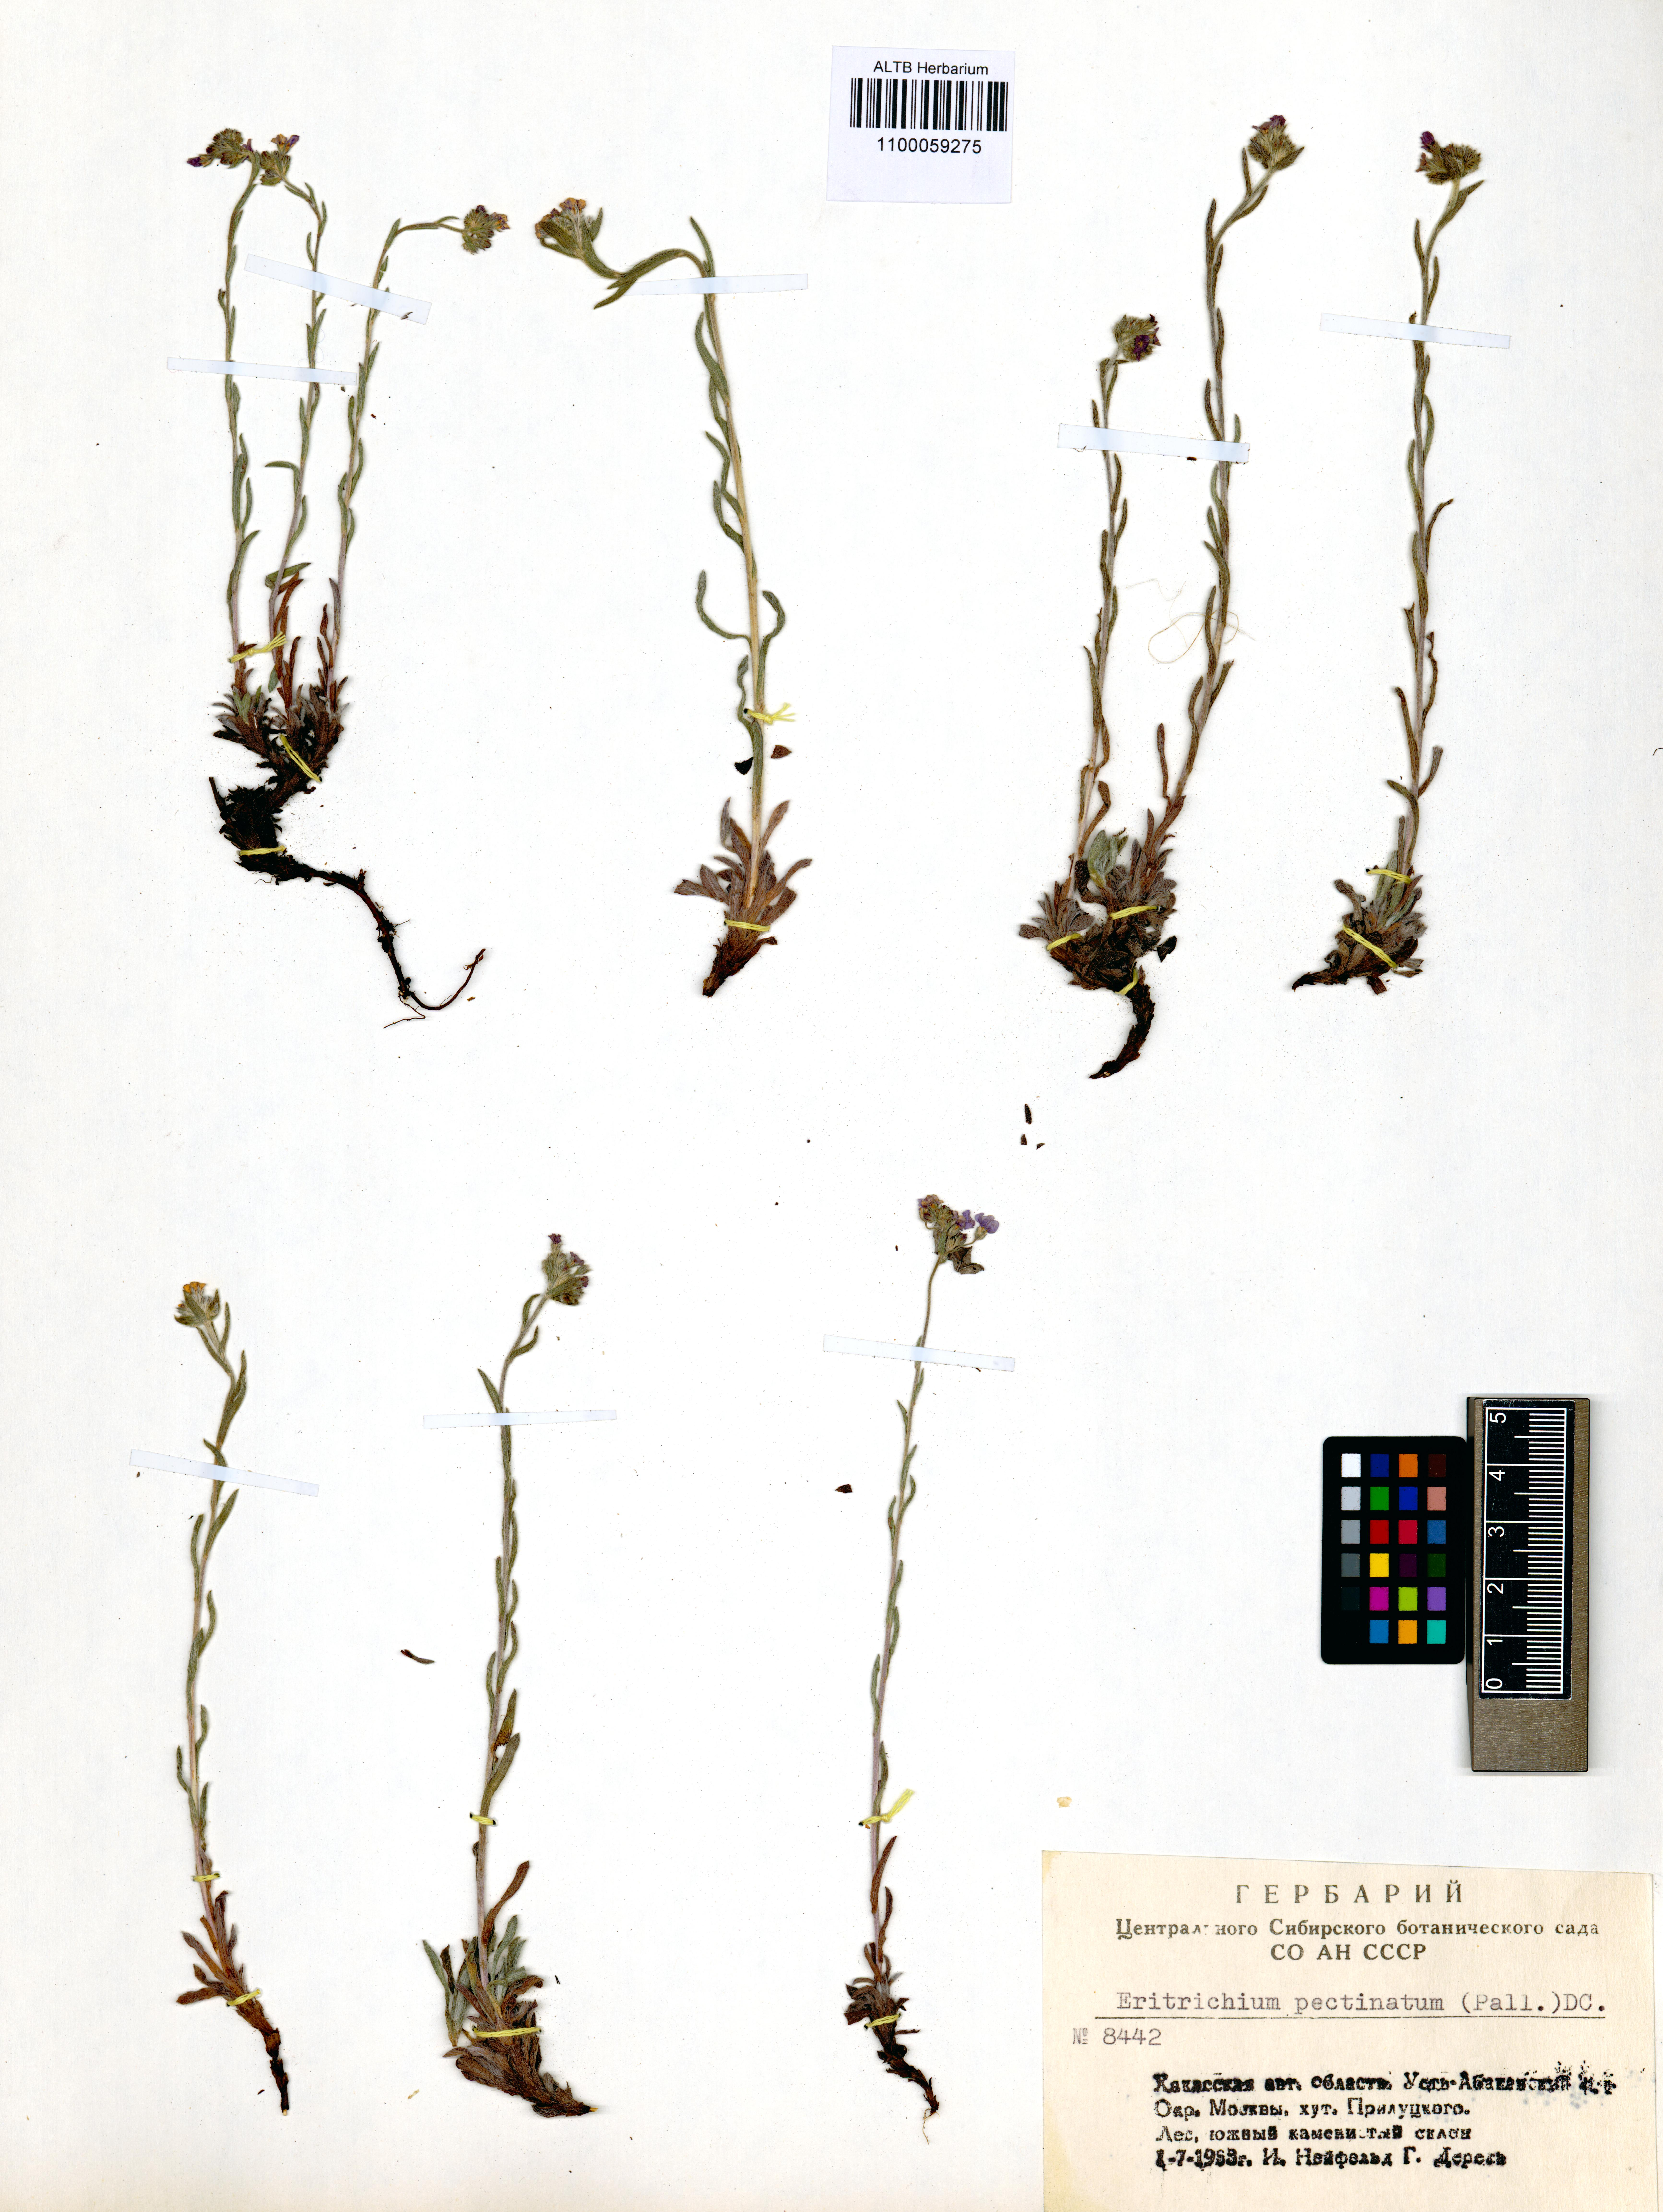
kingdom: Plantae
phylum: Tracheophyta
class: Magnoliopsida
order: Boraginales
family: Boraginaceae
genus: Eritrichium
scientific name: Eritrichium pectinatum
